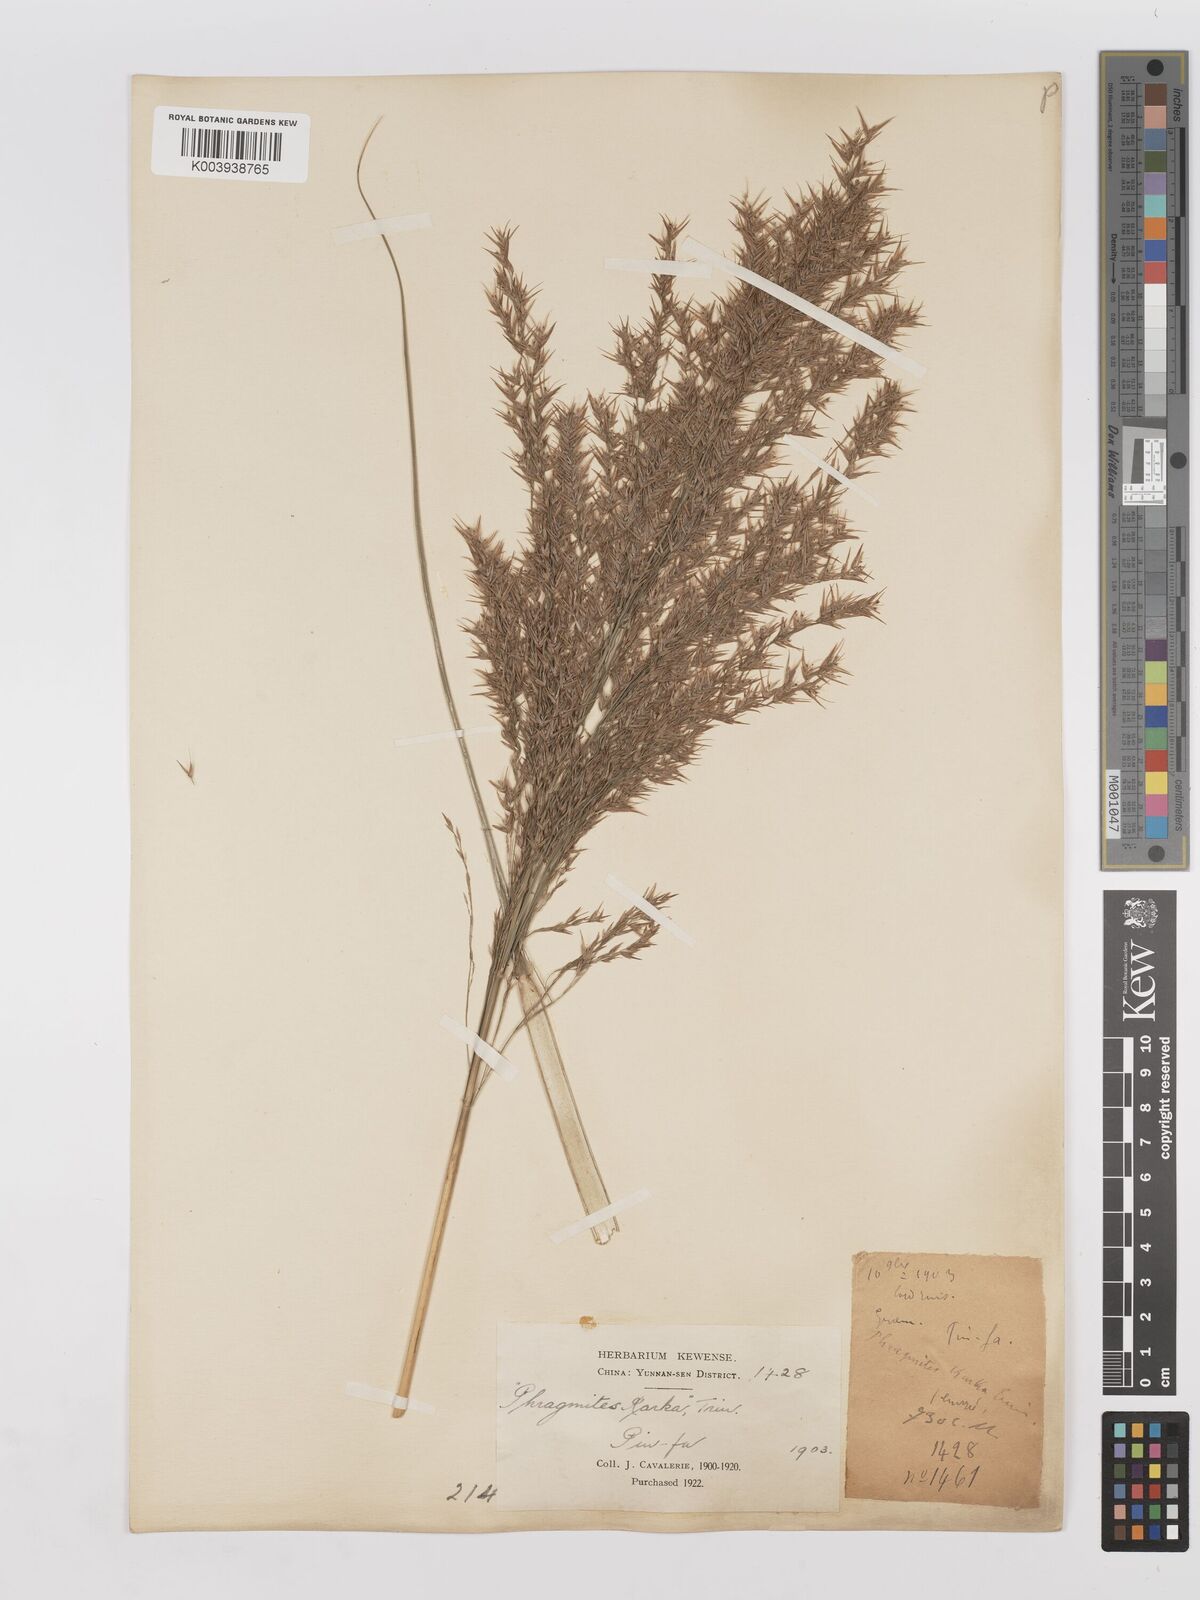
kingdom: Plantae
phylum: Tracheophyta
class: Liliopsida
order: Poales
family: Poaceae
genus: Phragmites
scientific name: Phragmites karka
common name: Tropical reed
